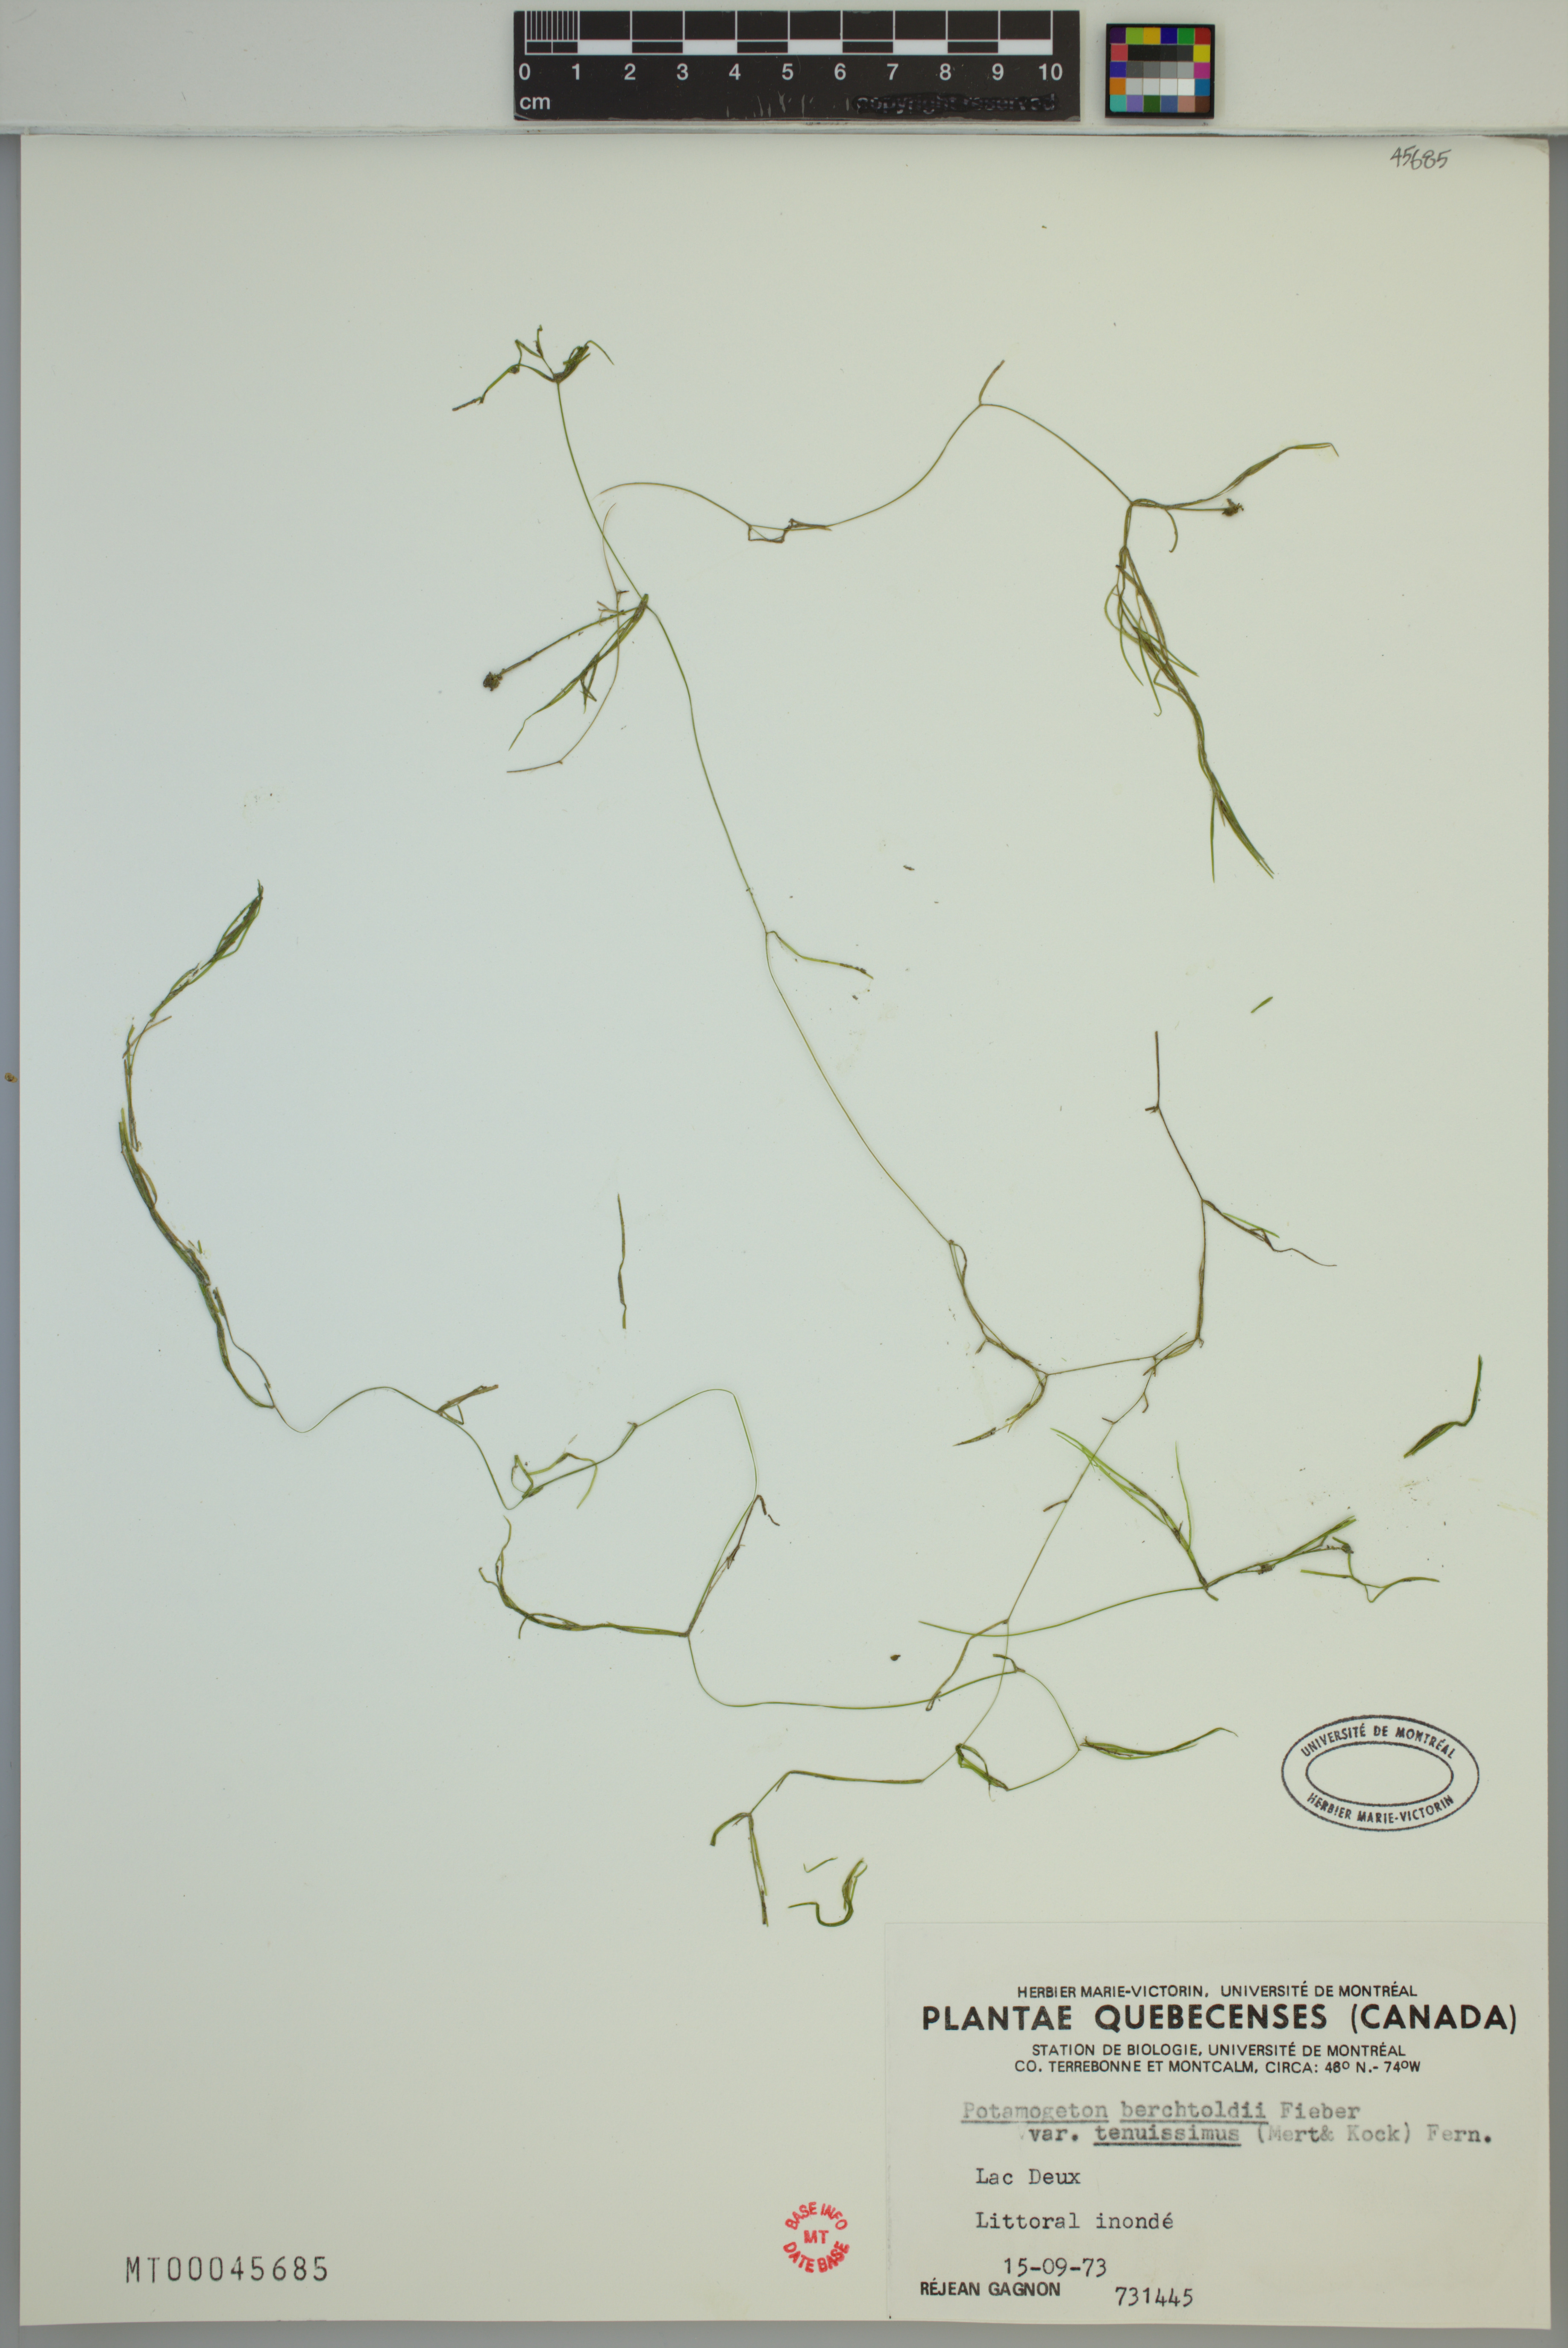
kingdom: Plantae
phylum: Tracheophyta
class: Liliopsida
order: Alismatales
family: Potamogetonaceae
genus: Potamogeton
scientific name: Potamogeton berchtoldii
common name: Small pondweed
